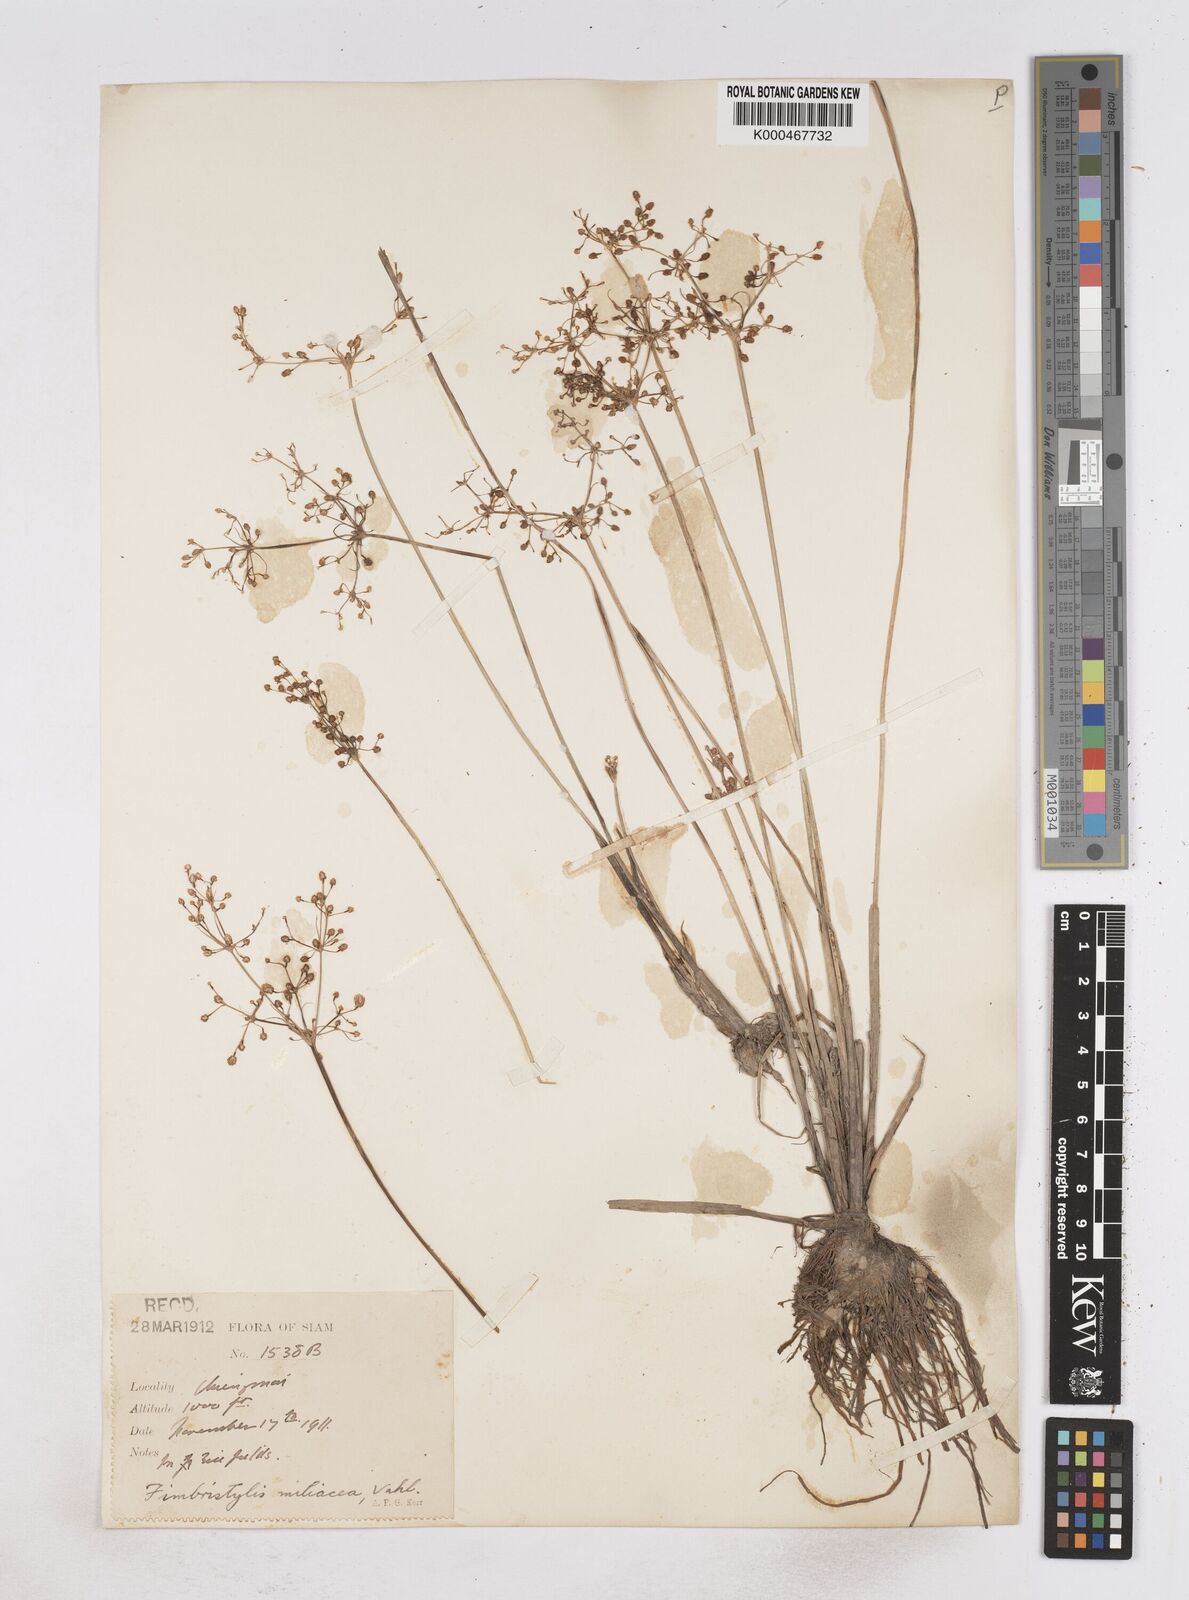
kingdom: Plantae
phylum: Tracheophyta
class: Liliopsida
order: Poales
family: Cyperaceae
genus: Fimbristylis
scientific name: Fimbristylis quinquangularis
